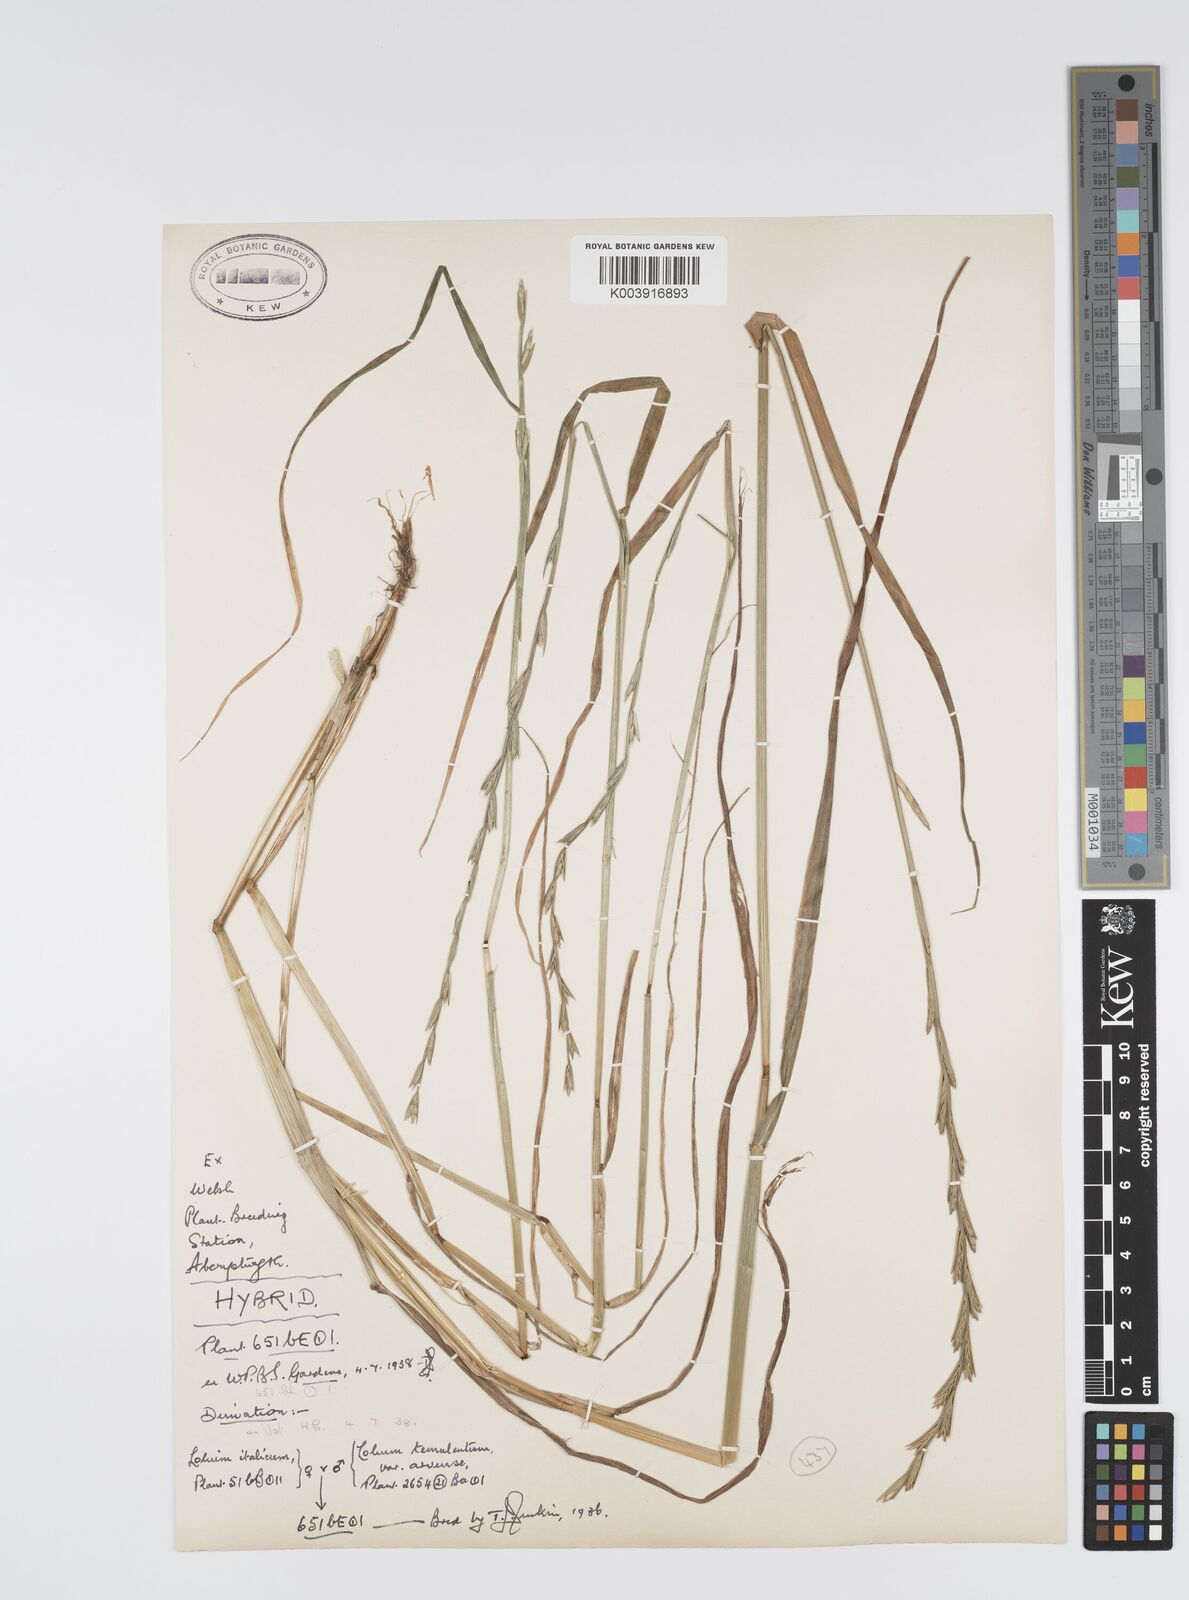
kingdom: Plantae
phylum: Tracheophyta
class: Liliopsida
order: Poales
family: Poaceae
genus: Lolium
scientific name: Lolium multiflorum
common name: Annual ryegrass
